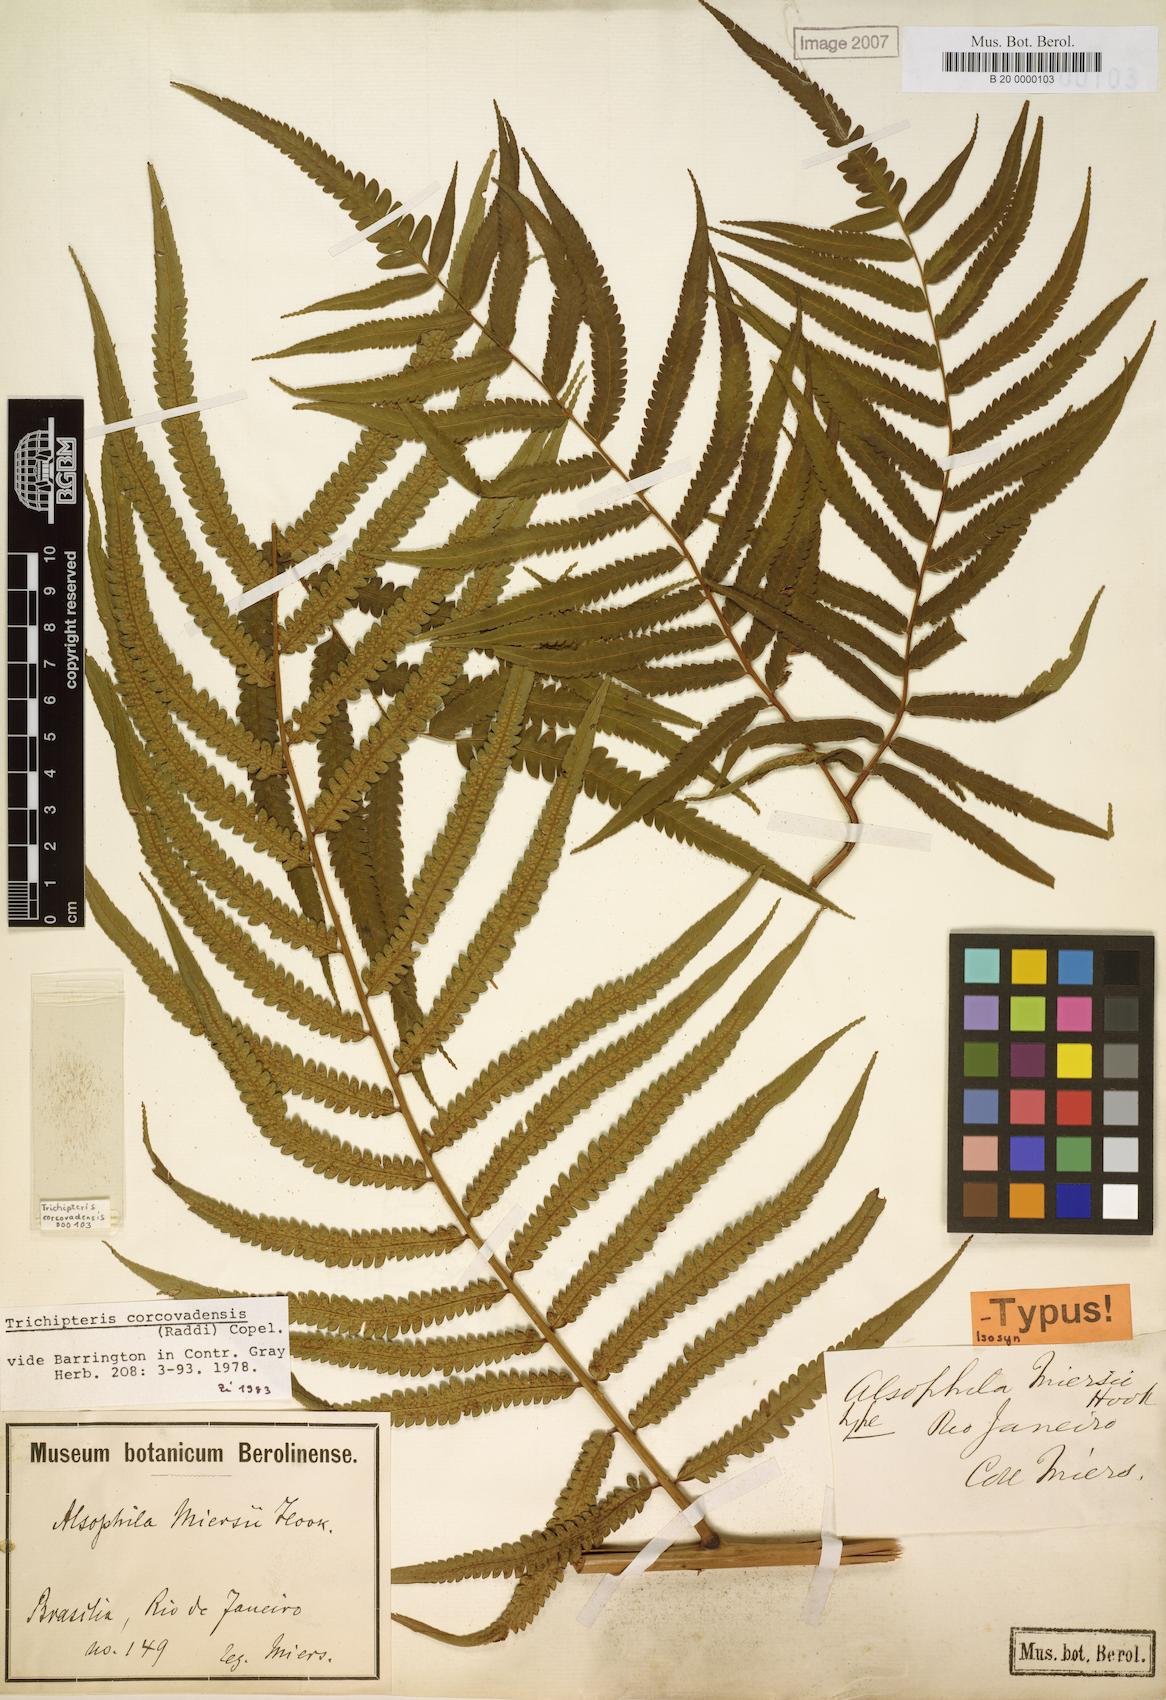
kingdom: Plantae
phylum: Tracheophyta
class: Polypodiopsida
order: Cyatheales
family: Cyatheaceae
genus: Cyathea
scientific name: Cyathea corcovadensis
